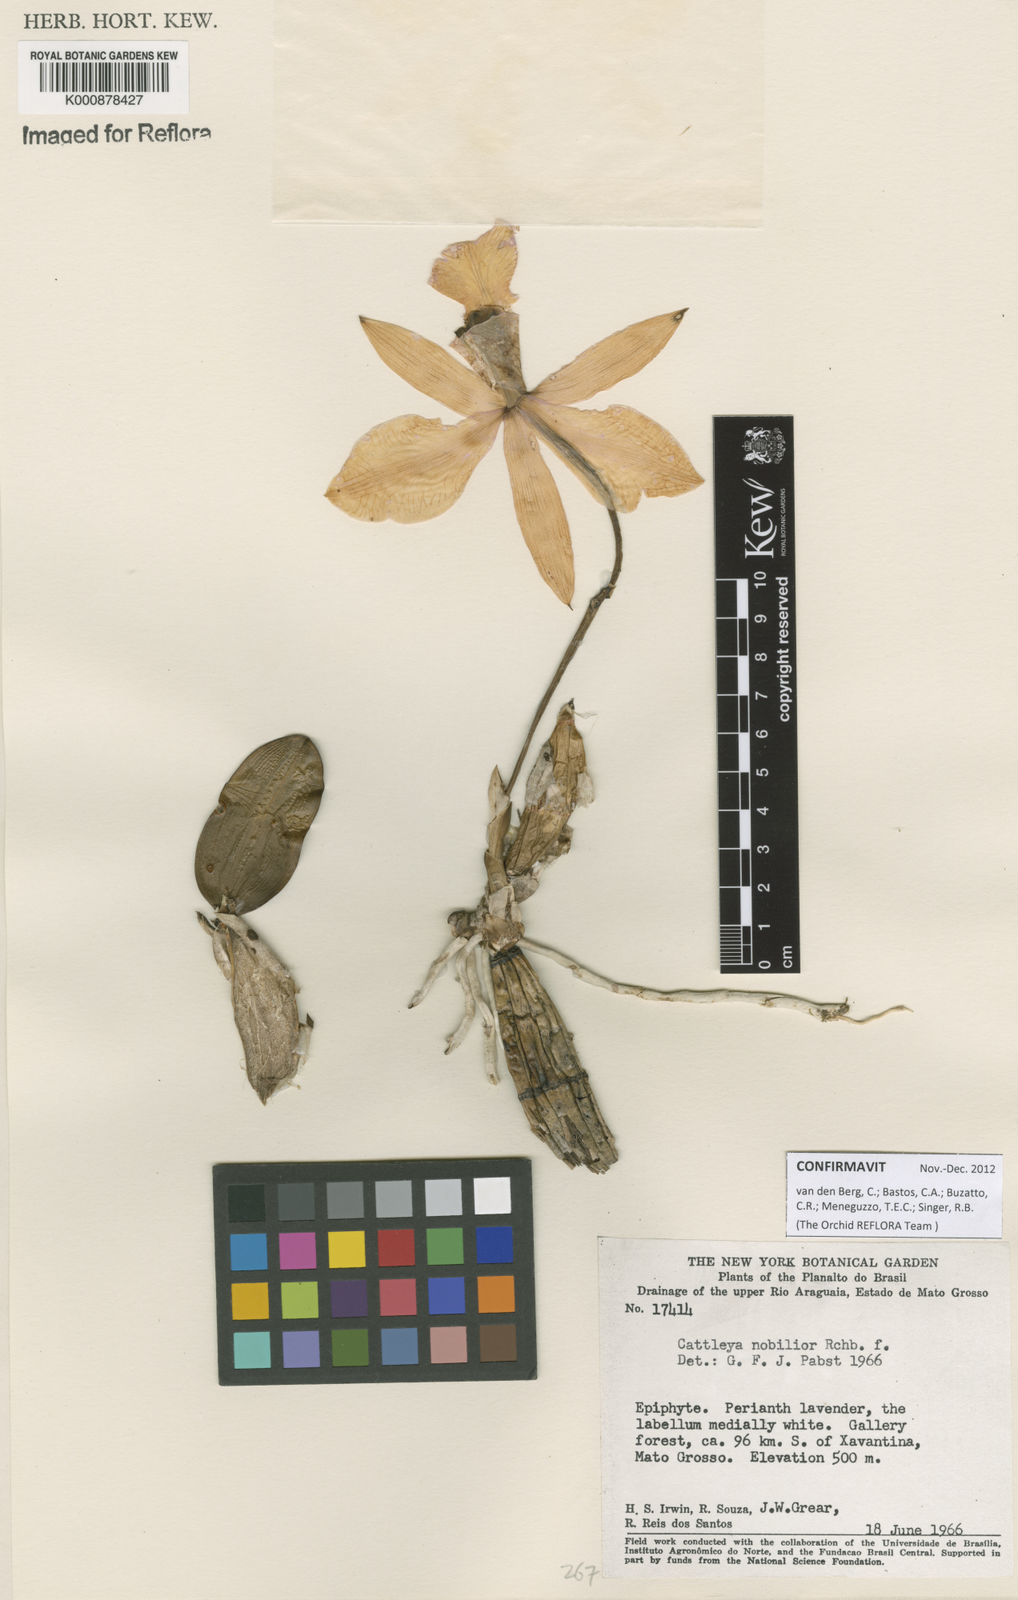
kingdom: Plantae
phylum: Tracheophyta
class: Liliopsida
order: Asparagales
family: Orchidaceae
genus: Cattleya
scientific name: Cattleya nobilior
